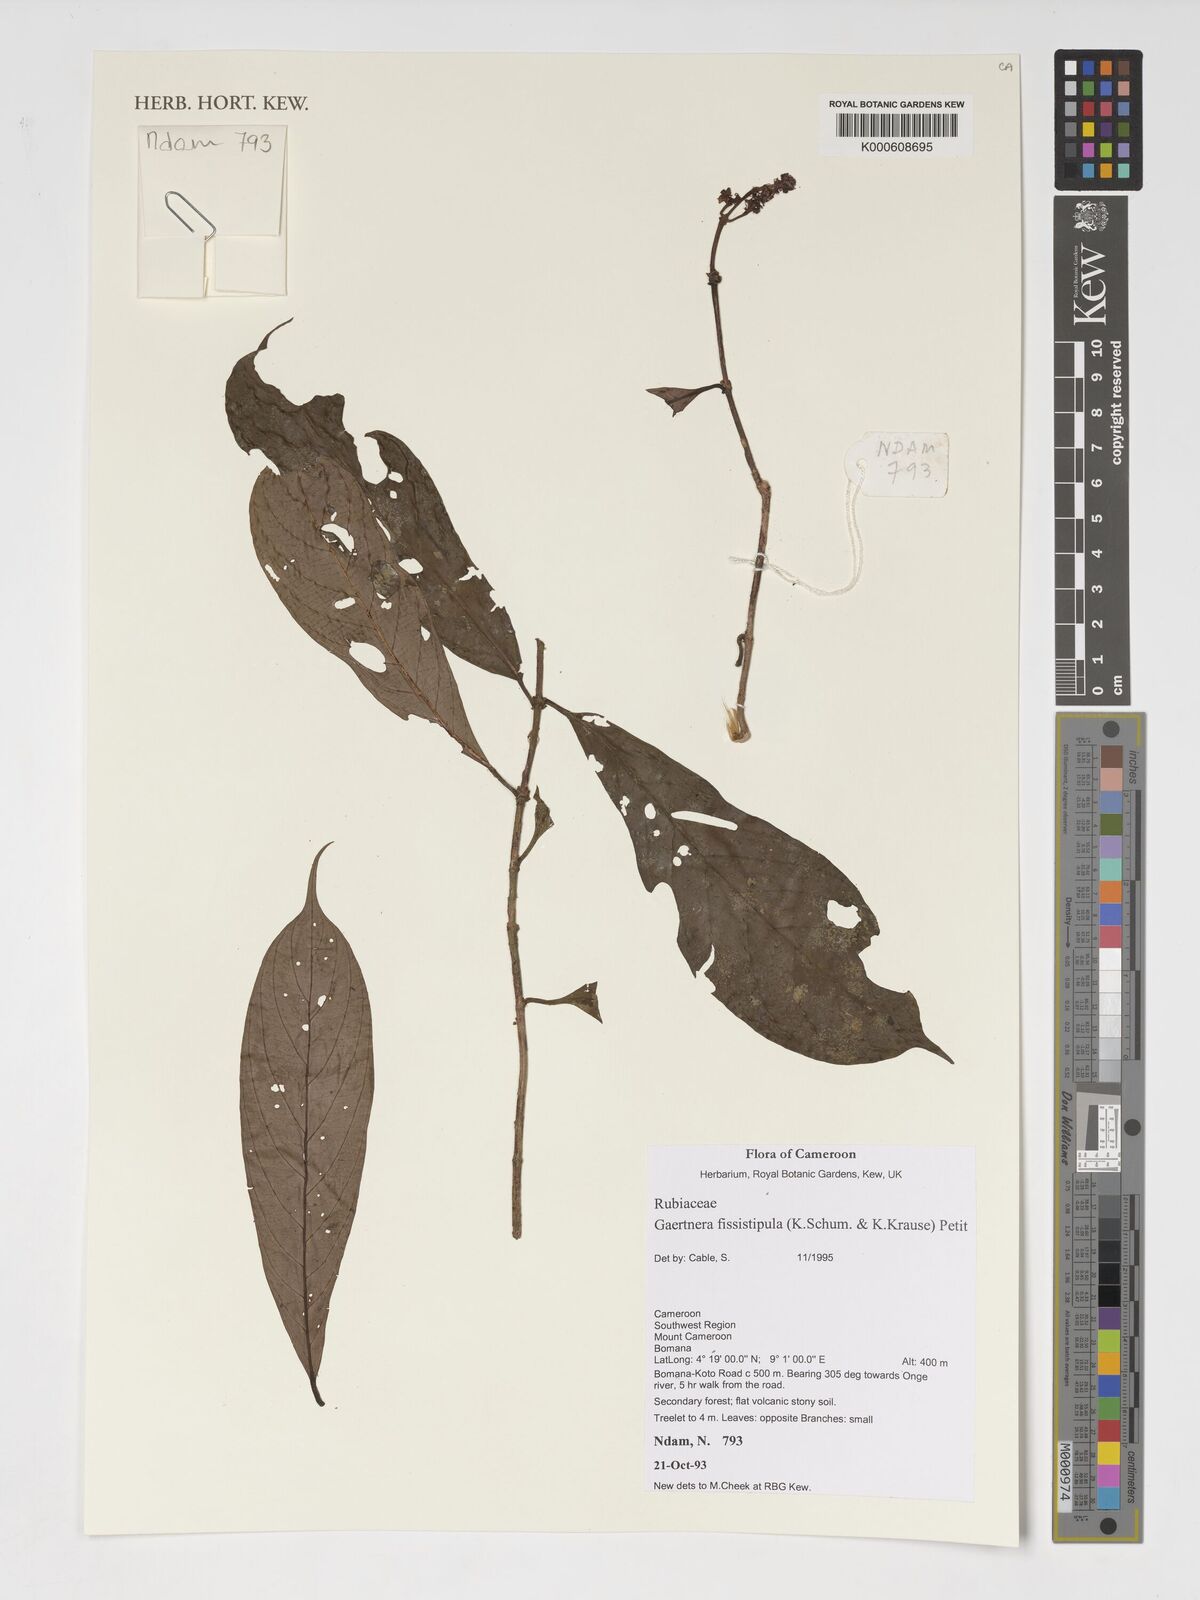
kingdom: Plantae
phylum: Tracheophyta
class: Magnoliopsida
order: Gentianales
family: Rubiaceae
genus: Gaertnera
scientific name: Gaertnera bieleri
